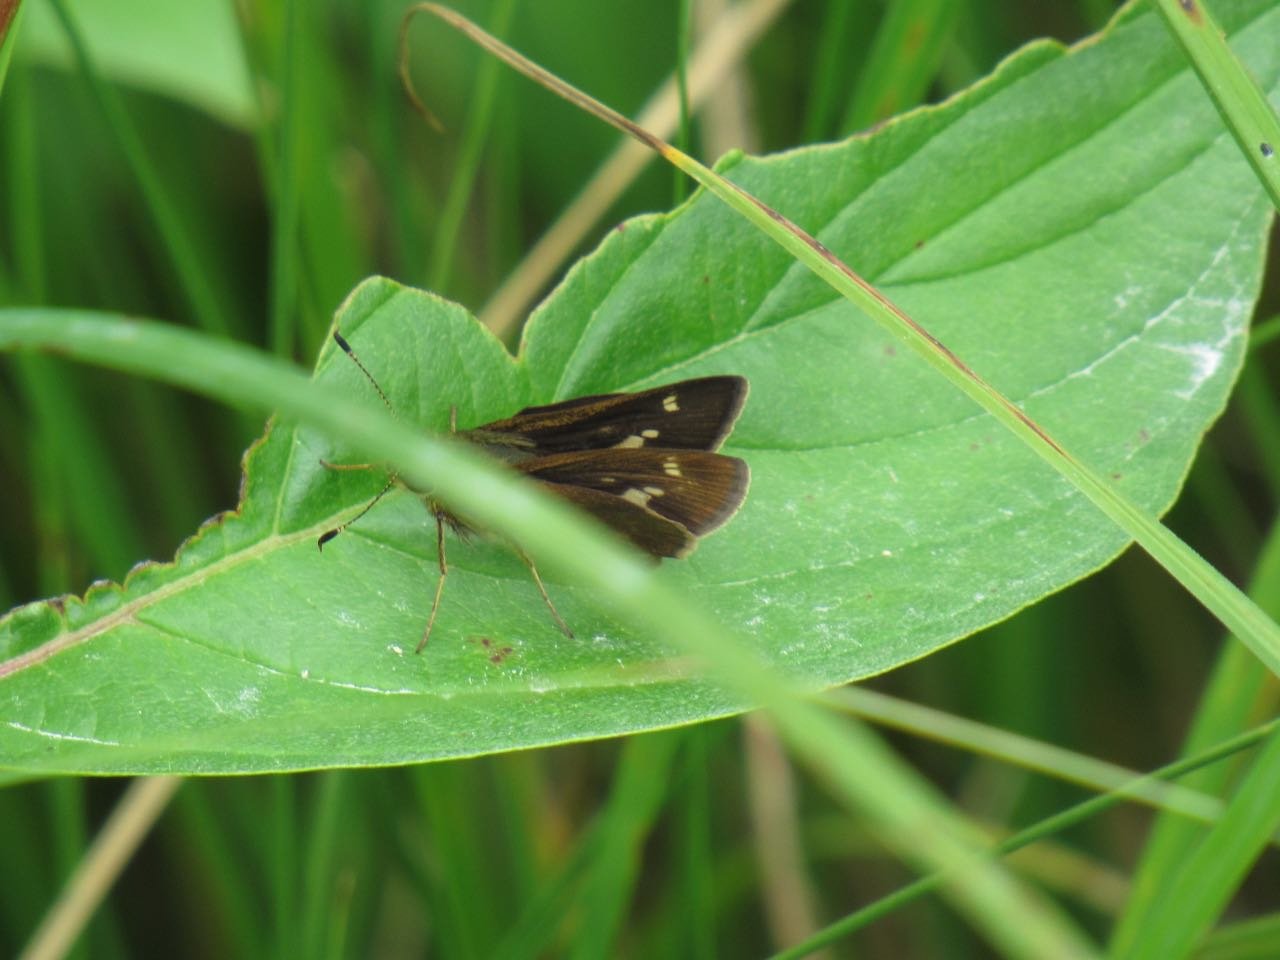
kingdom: Animalia
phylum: Arthropoda
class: Insecta
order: Lepidoptera
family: Hesperiidae
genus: Vernia
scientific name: Vernia verna
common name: Little Glassywing
